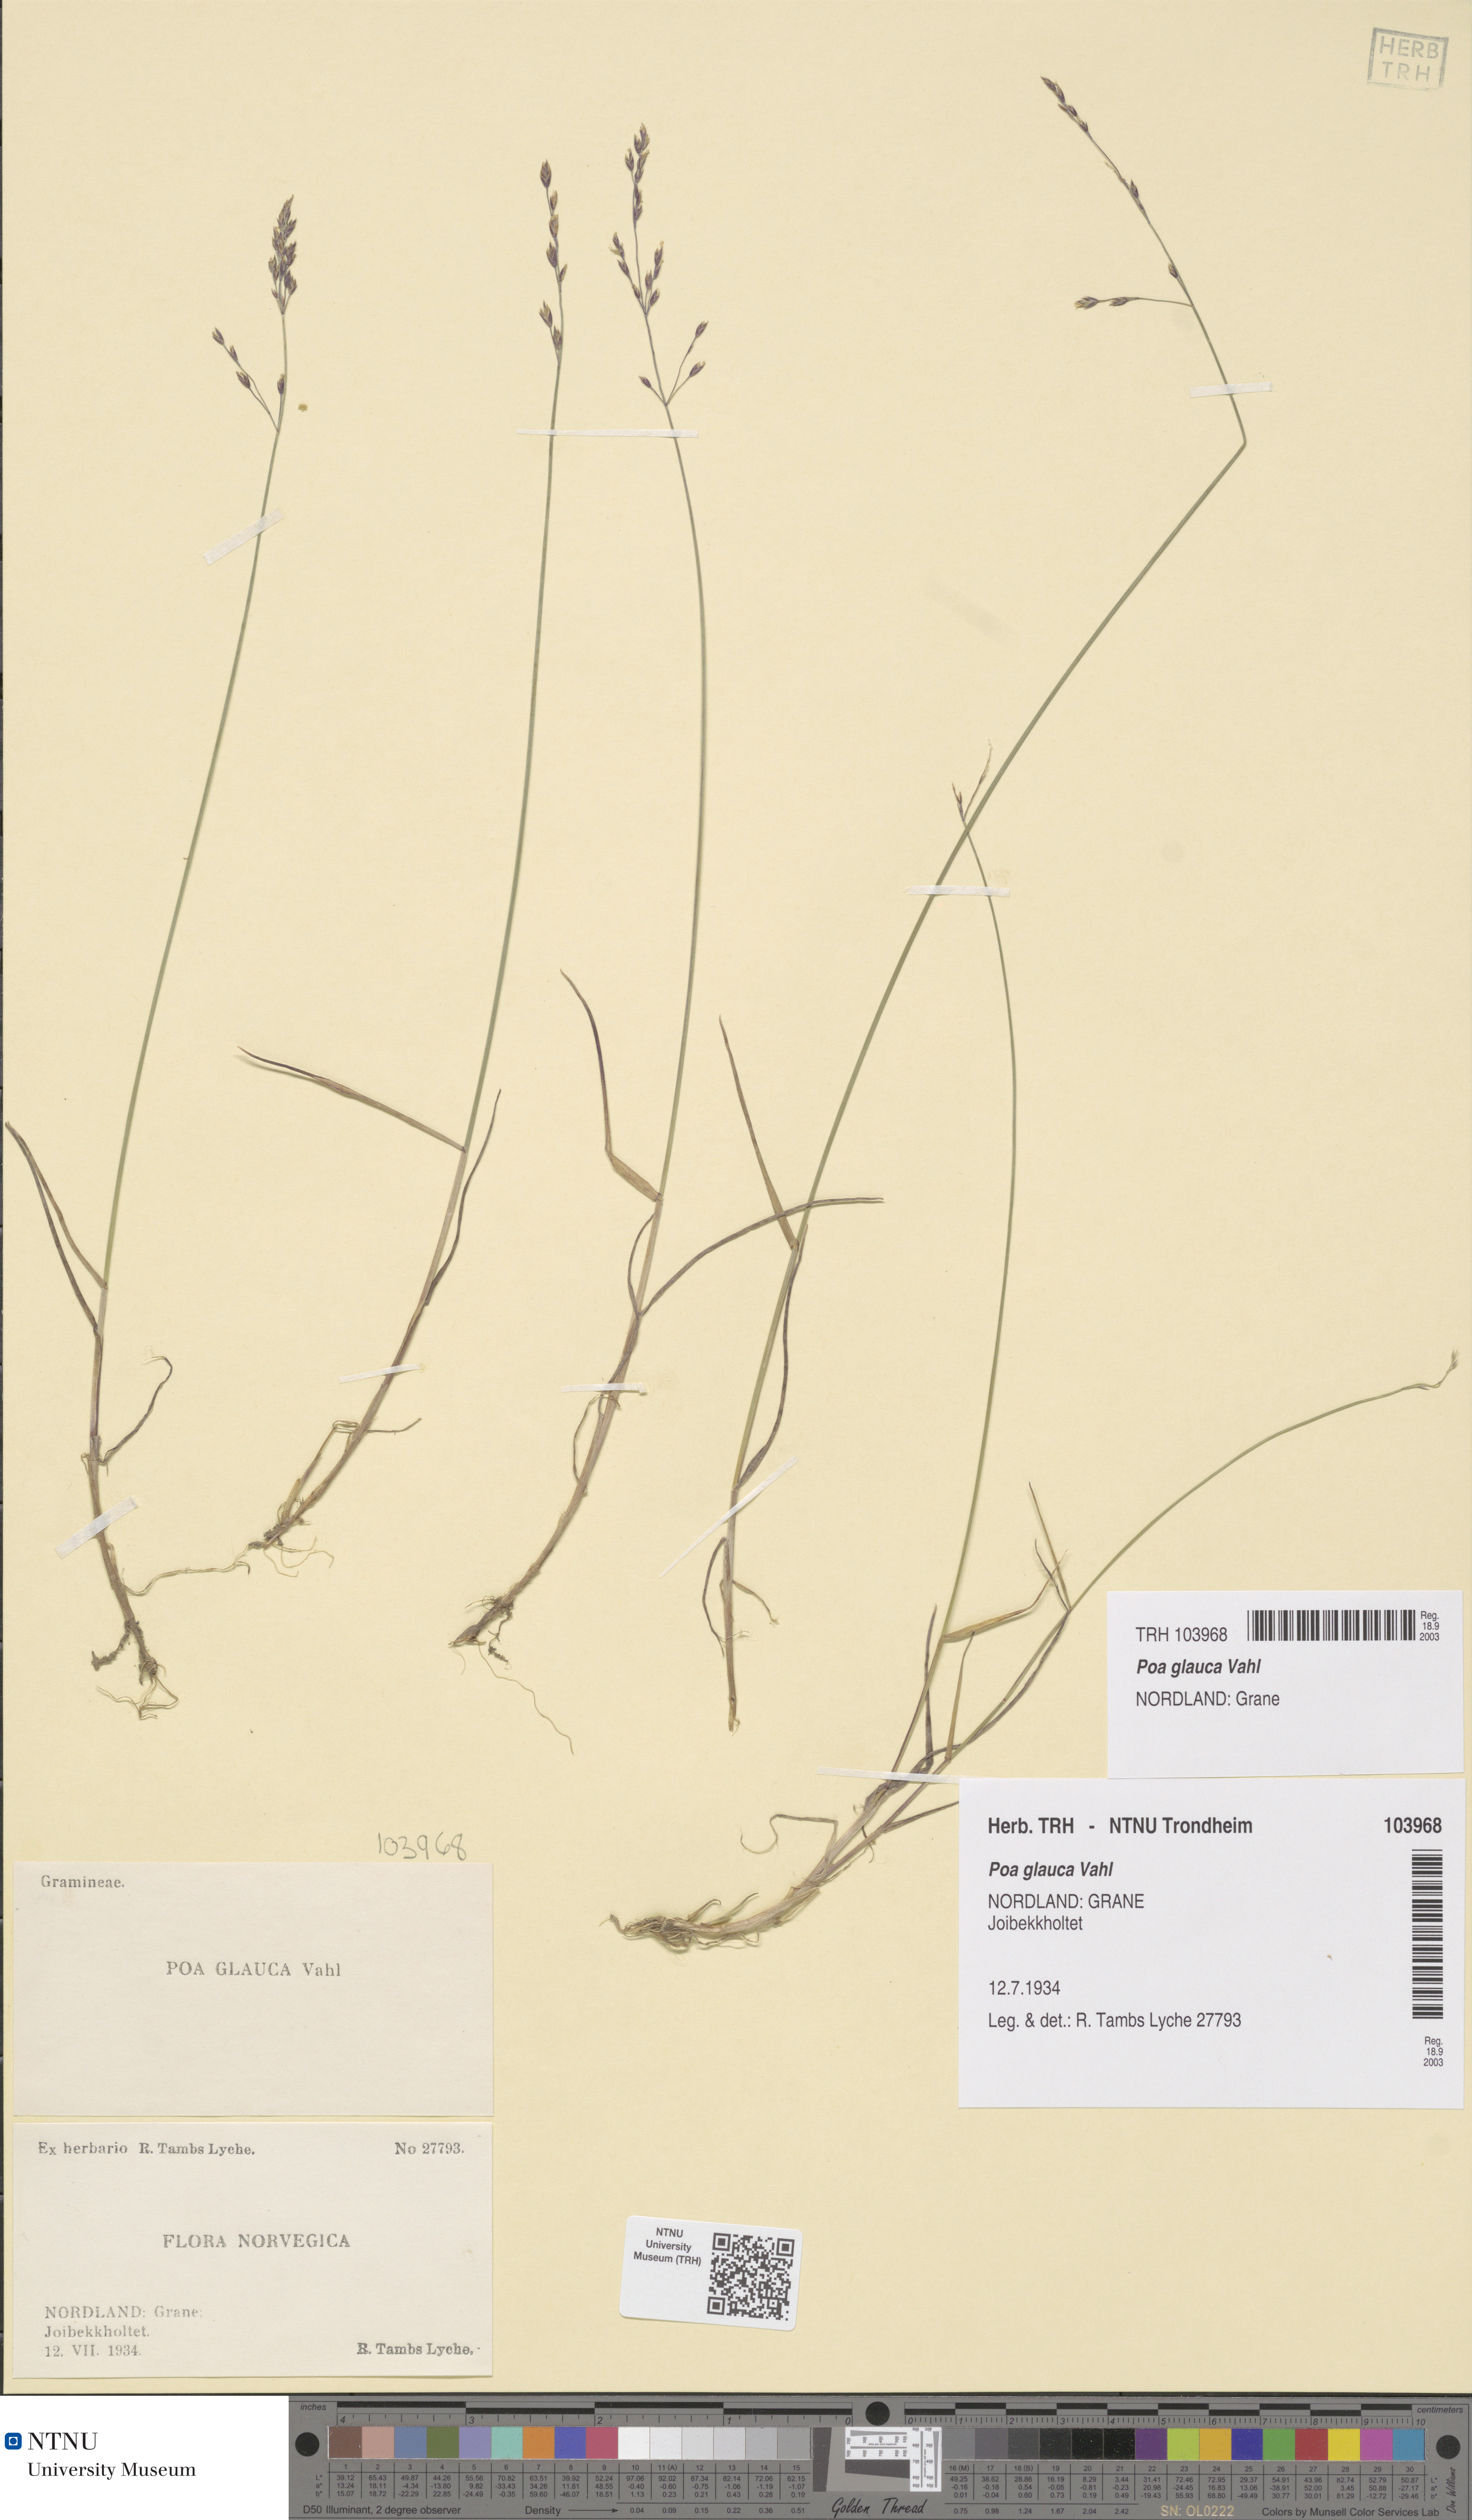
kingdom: Plantae
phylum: Tracheophyta
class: Liliopsida
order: Poales
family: Poaceae
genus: Poa
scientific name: Poa glauca
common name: Glaucous bluegrass
